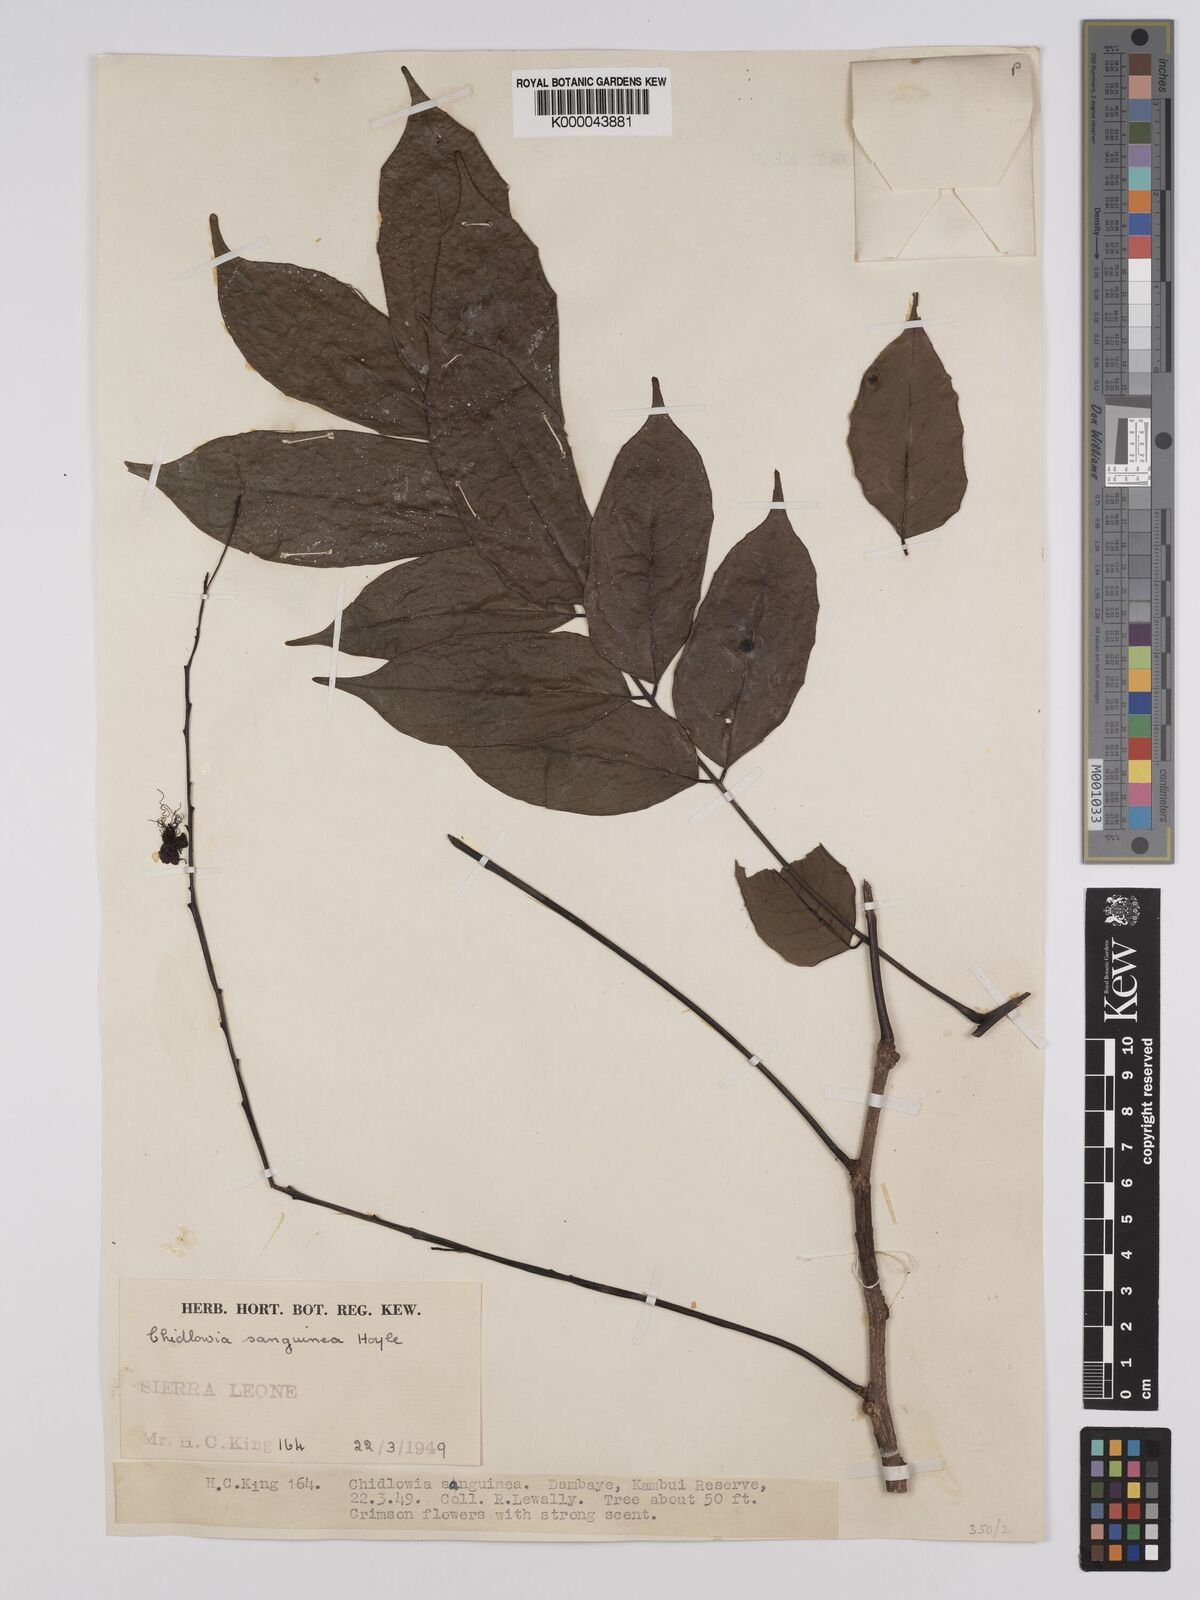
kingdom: Plantae
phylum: Tracheophyta
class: Magnoliopsida
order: Fabales
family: Fabaceae
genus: Chidlowia
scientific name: Chidlowia sanguinea
